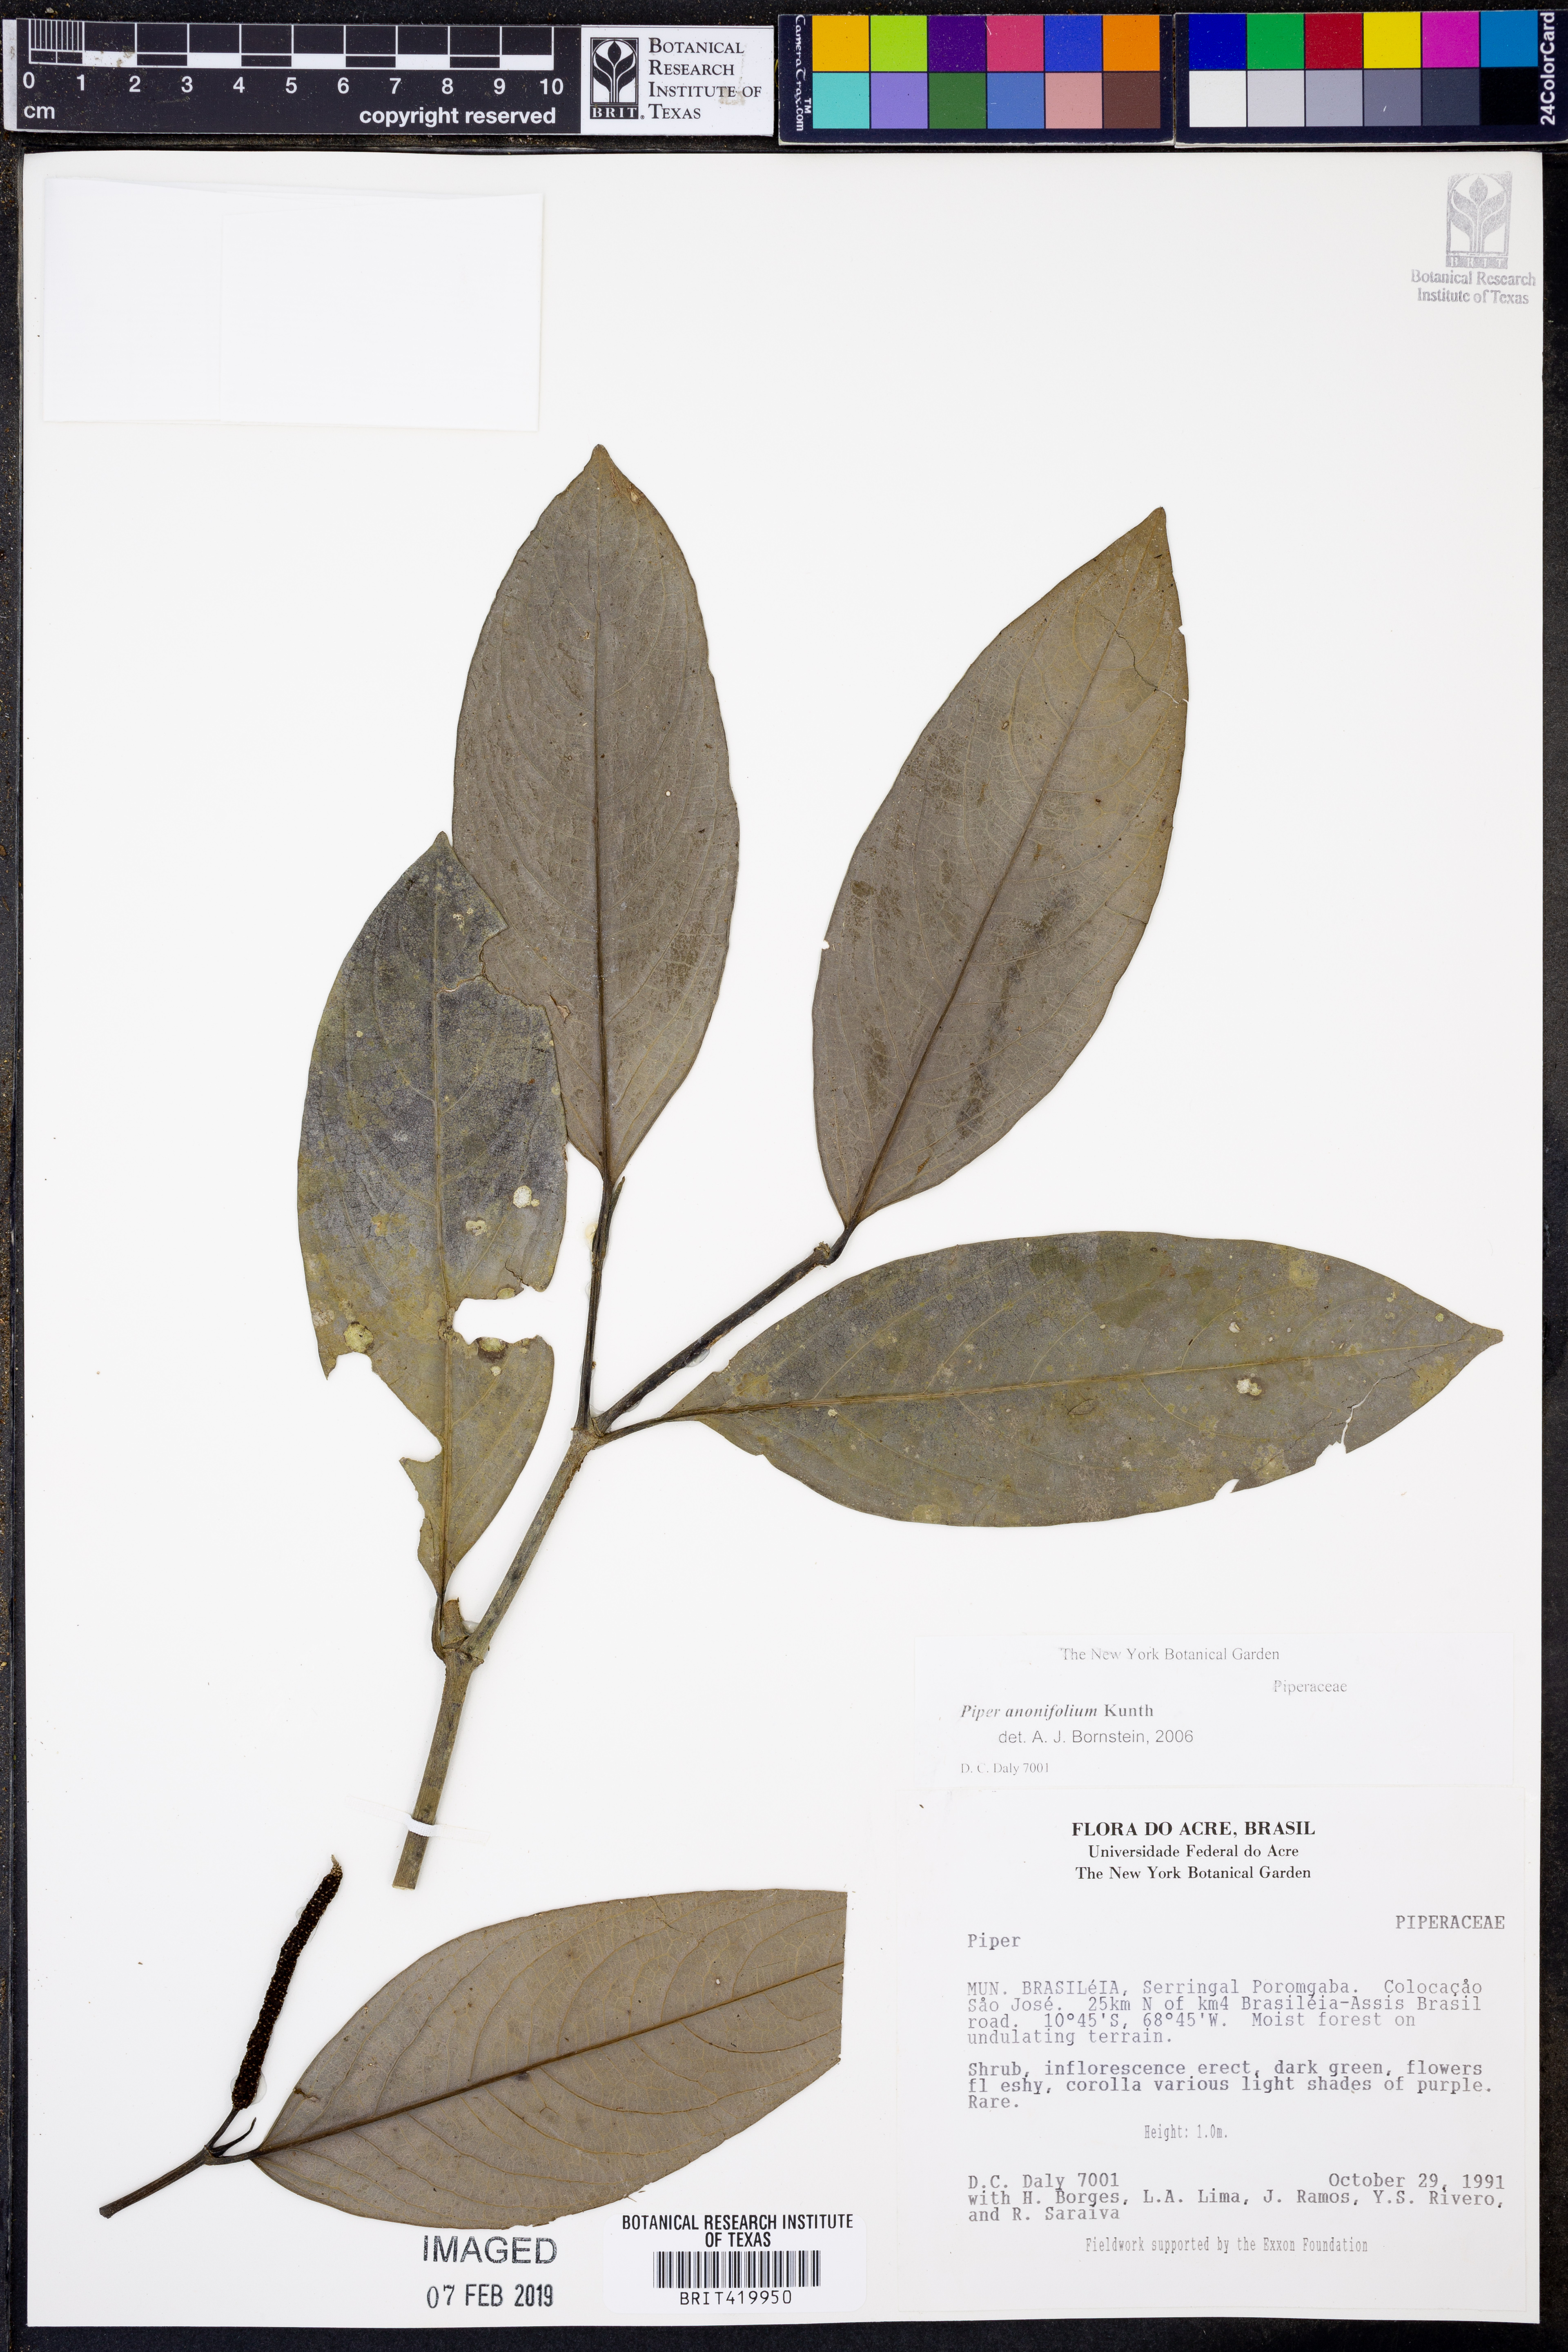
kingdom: Plantae
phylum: Tracheophyta
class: Magnoliopsida
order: Piperales
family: Piperaceae
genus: Piper
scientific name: Piper anonifolium
